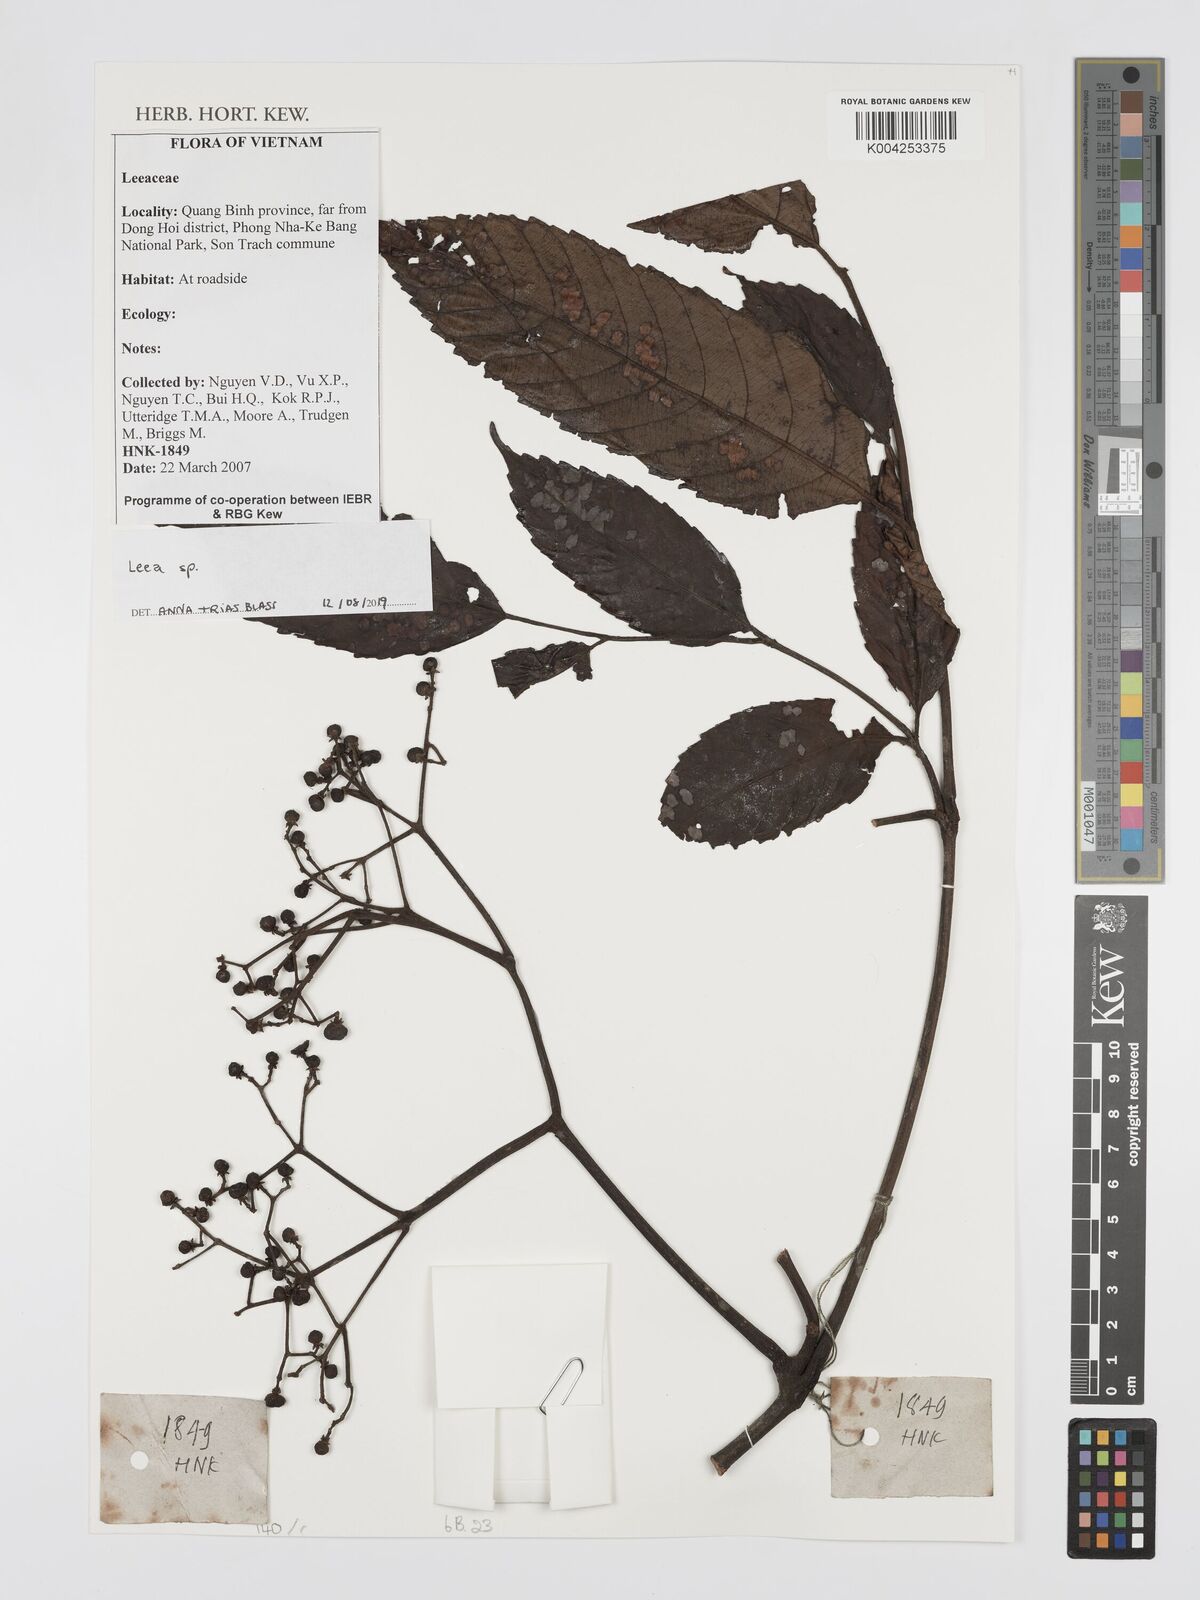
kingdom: Plantae
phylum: Tracheophyta
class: Magnoliopsida
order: Vitales
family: Vitaceae
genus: Leea
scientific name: Leea
